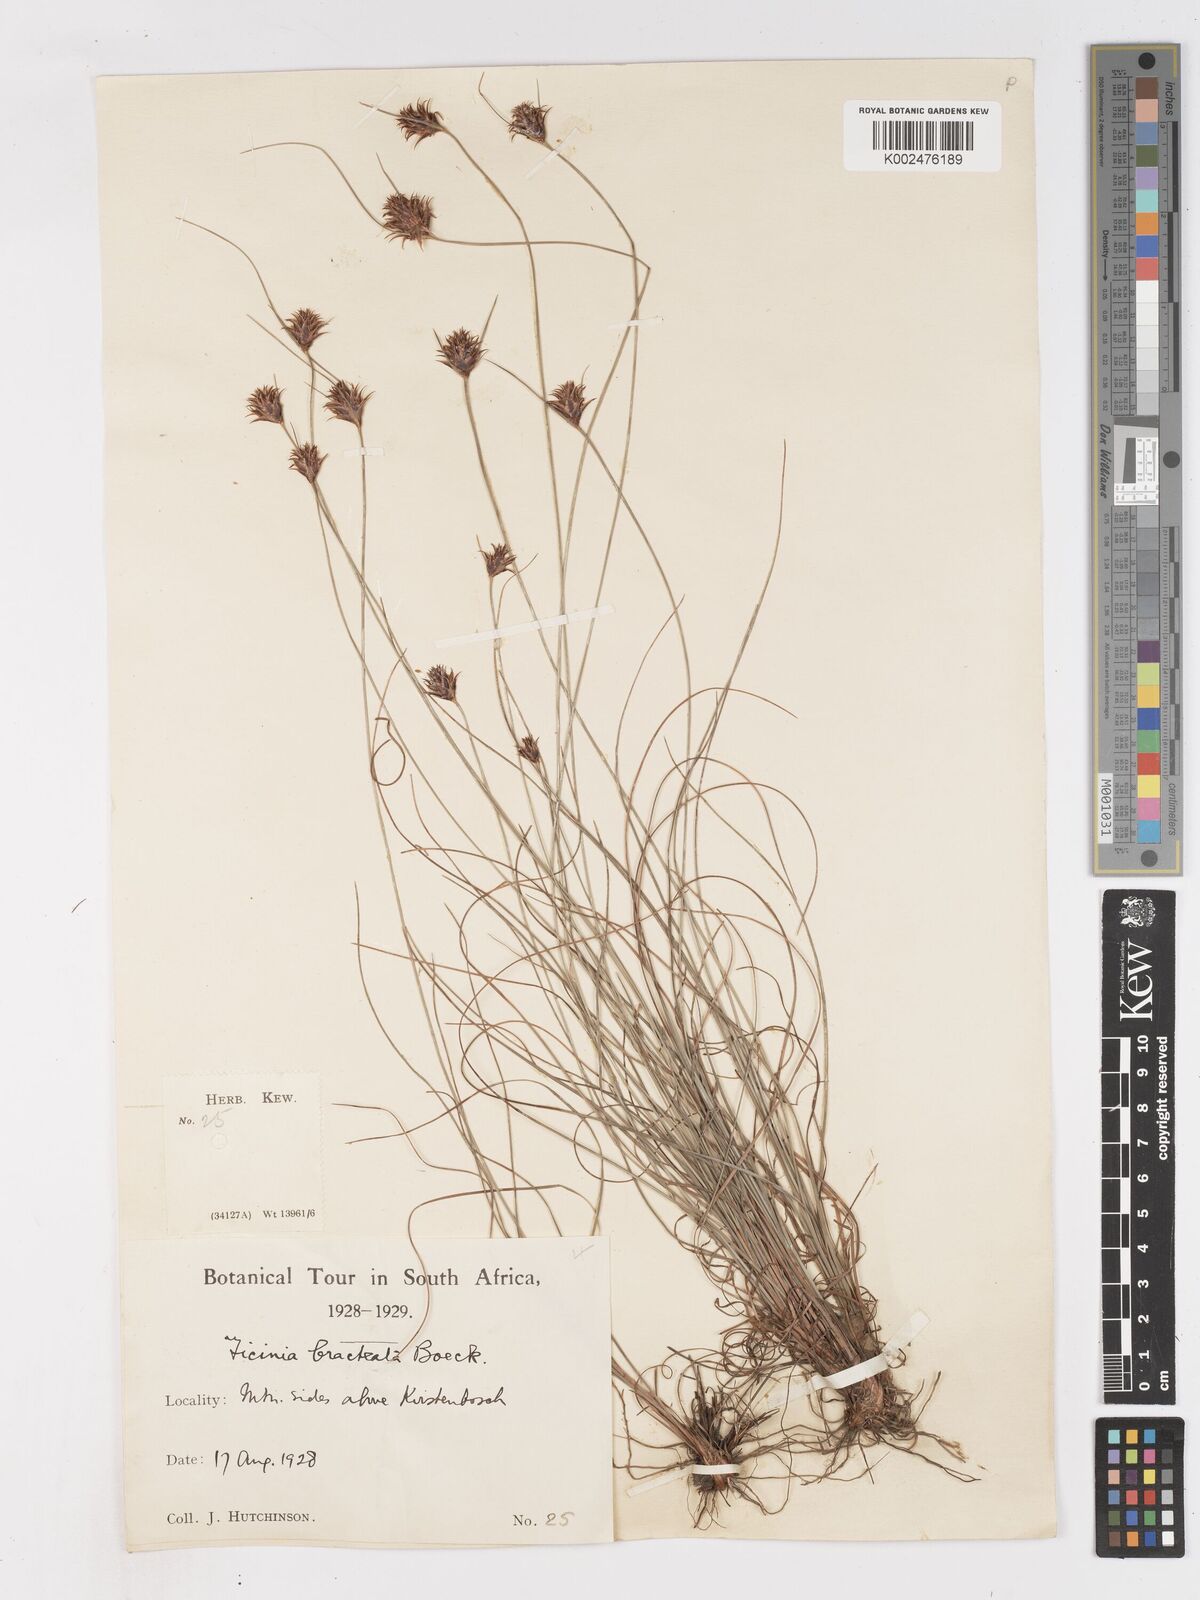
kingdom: Plantae
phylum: Tracheophyta
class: Liliopsida
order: Poales
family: Cyperaceae
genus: Ficinia
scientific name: Ficinia nigrescens
